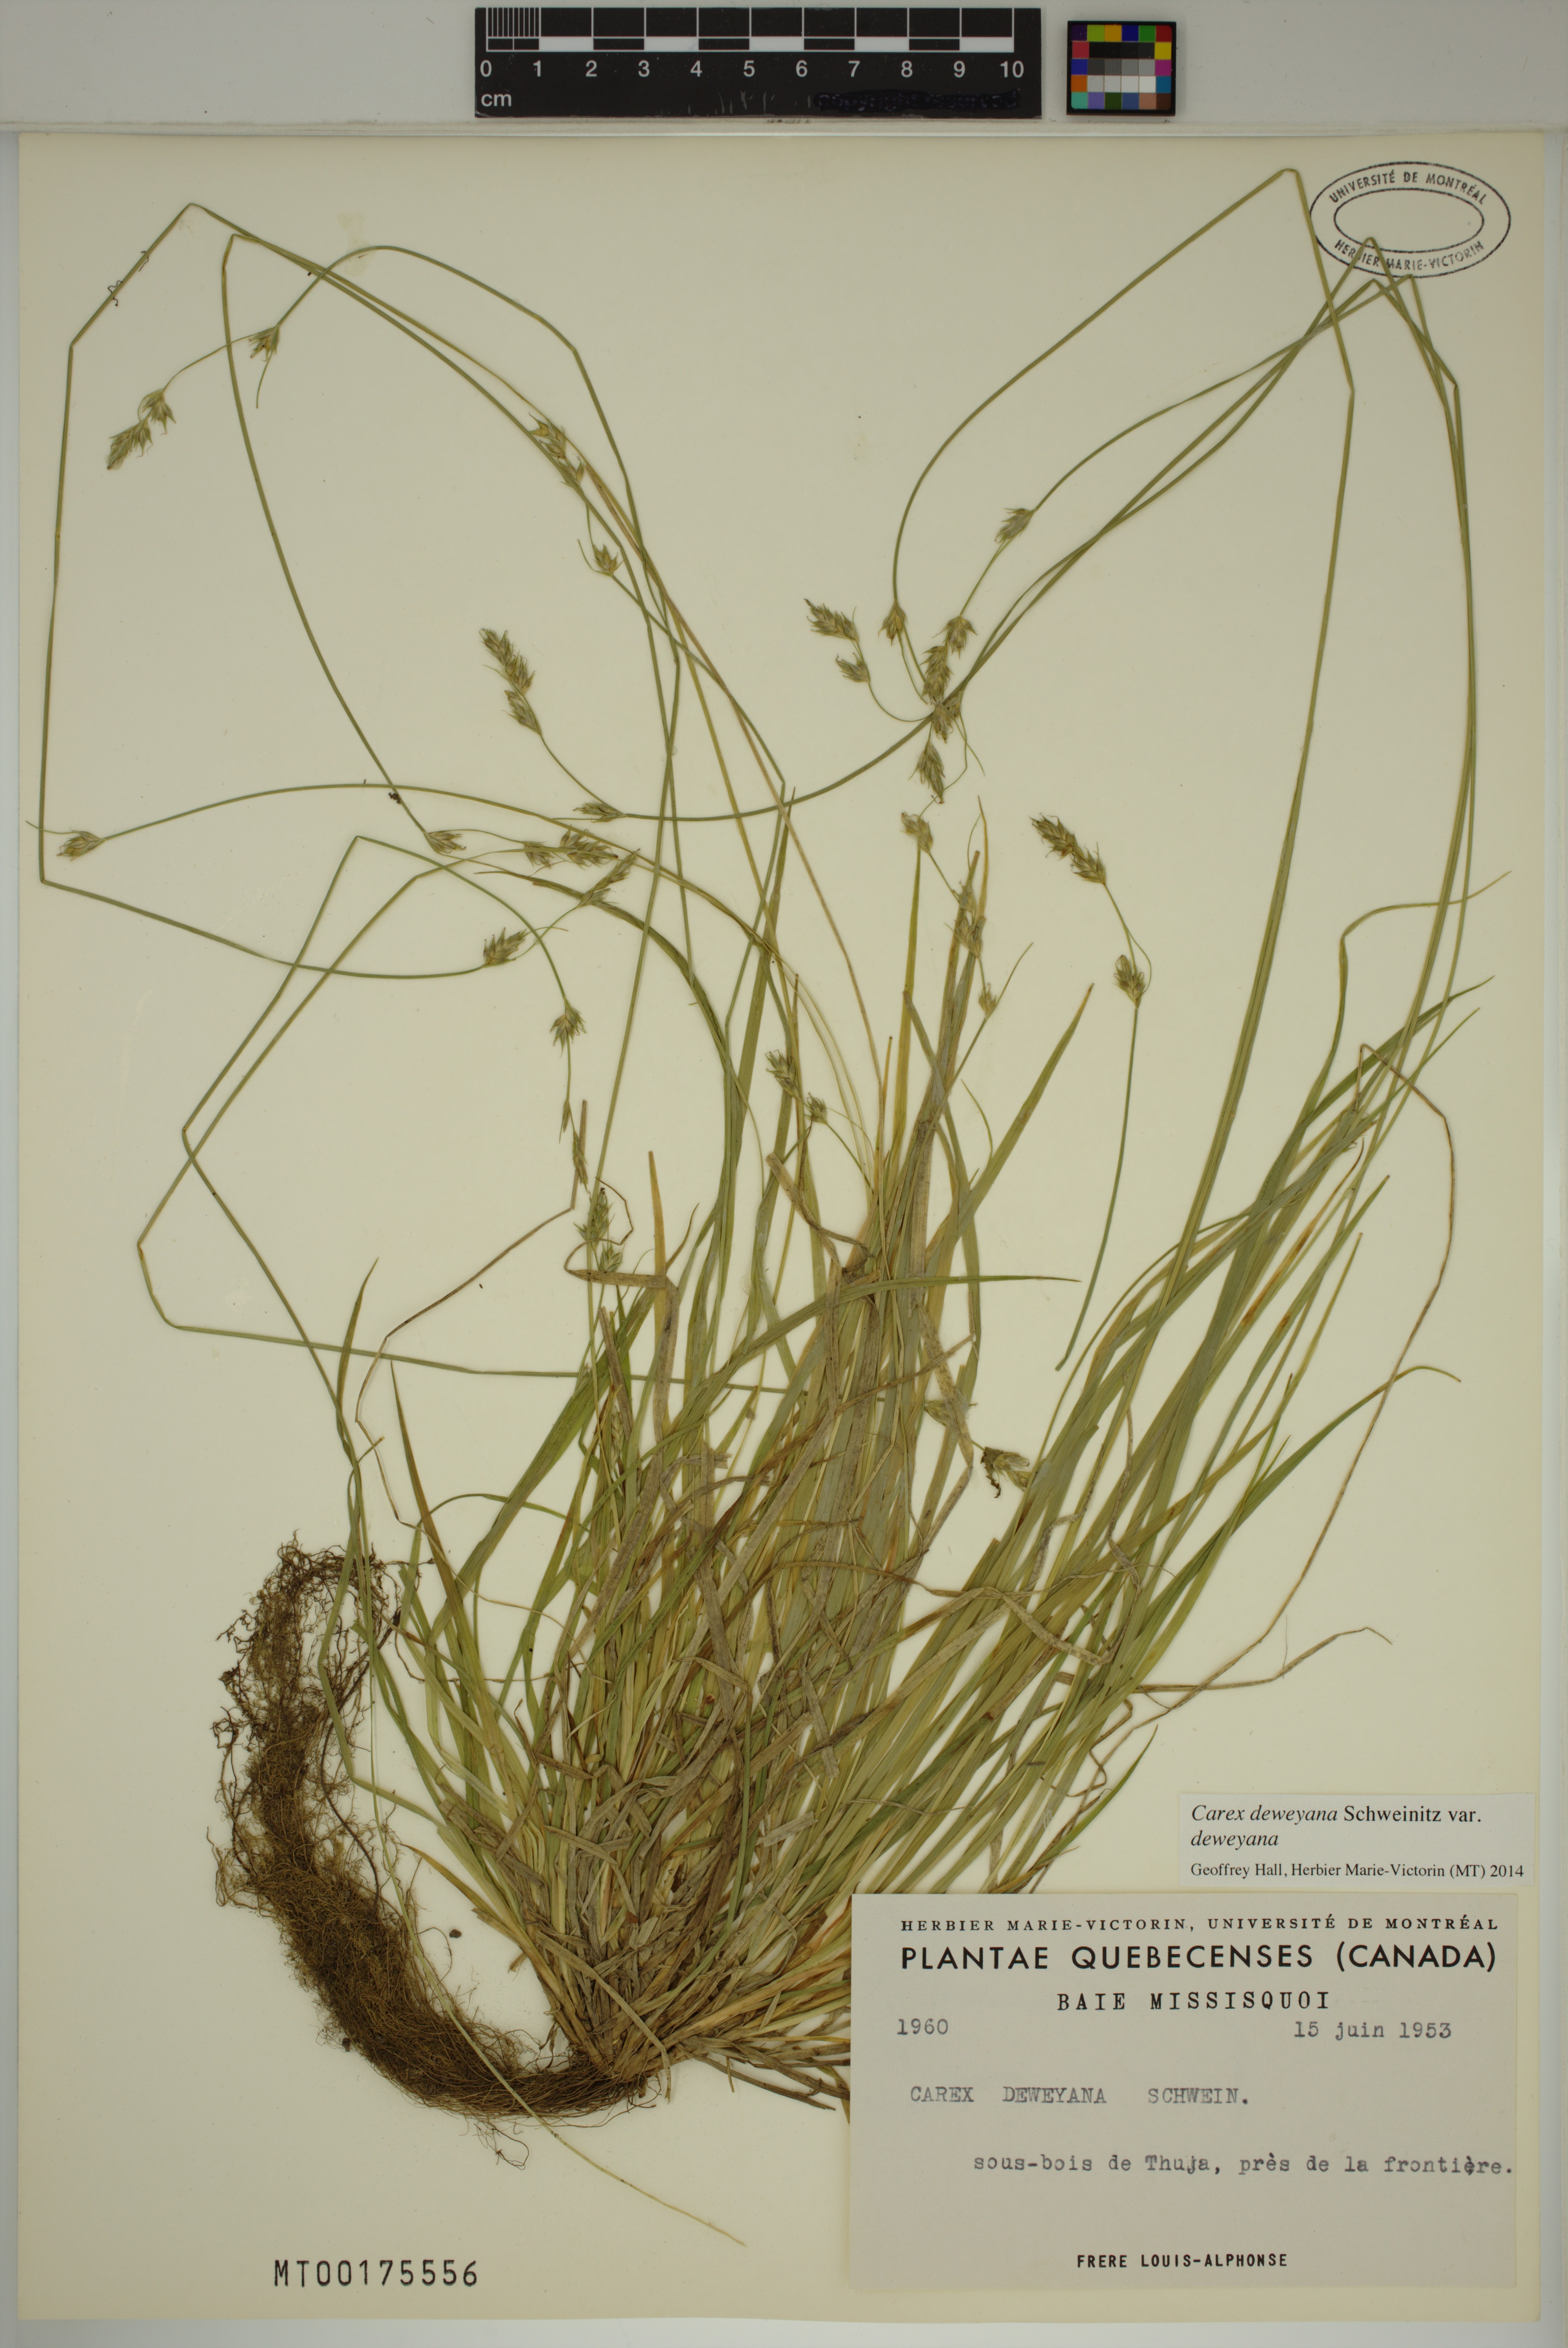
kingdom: Plantae
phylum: Tracheophyta
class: Liliopsida
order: Poales
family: Cyperaceae
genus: Carex
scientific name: Carex deweyana
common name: Dewey's sedge
